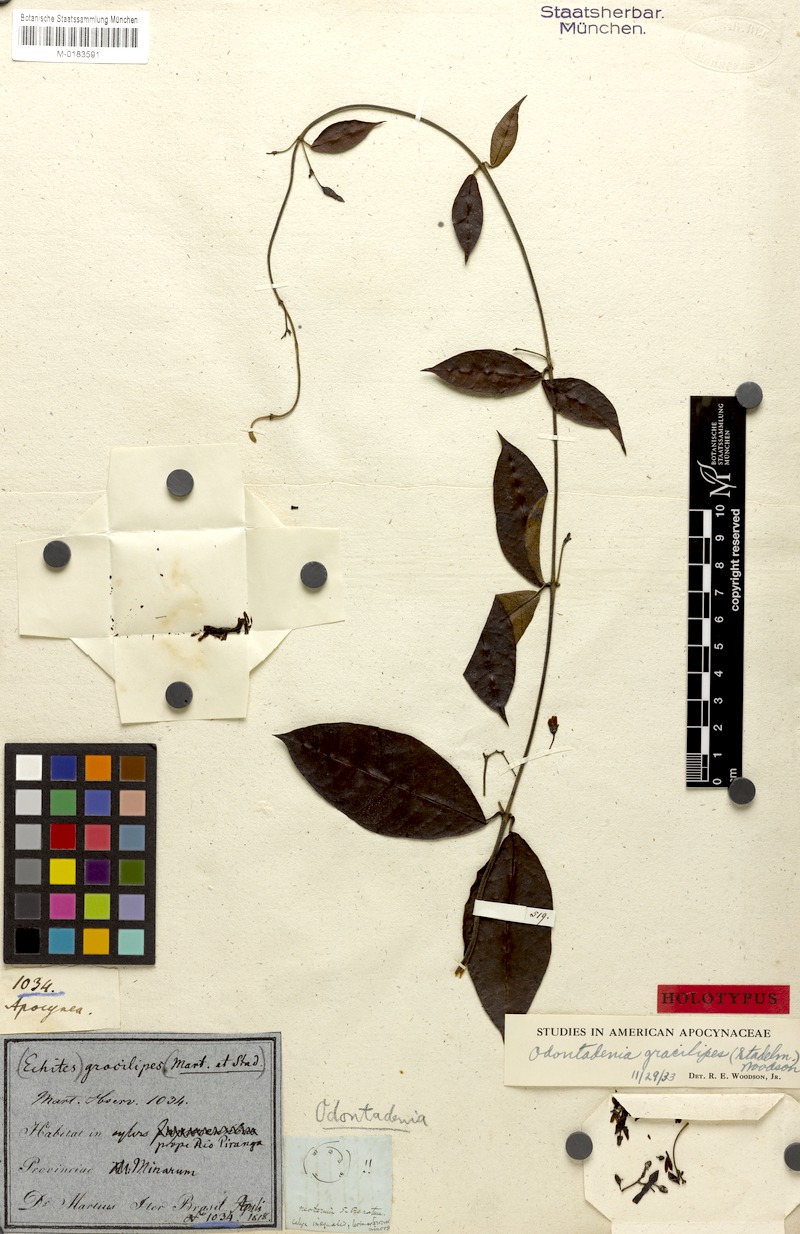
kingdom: Plantae
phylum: Tracheophyta
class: Magnoliopsida
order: Gentianales
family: Apocynaceae
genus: Odontadenia
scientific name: Odontadenia gracilipes
